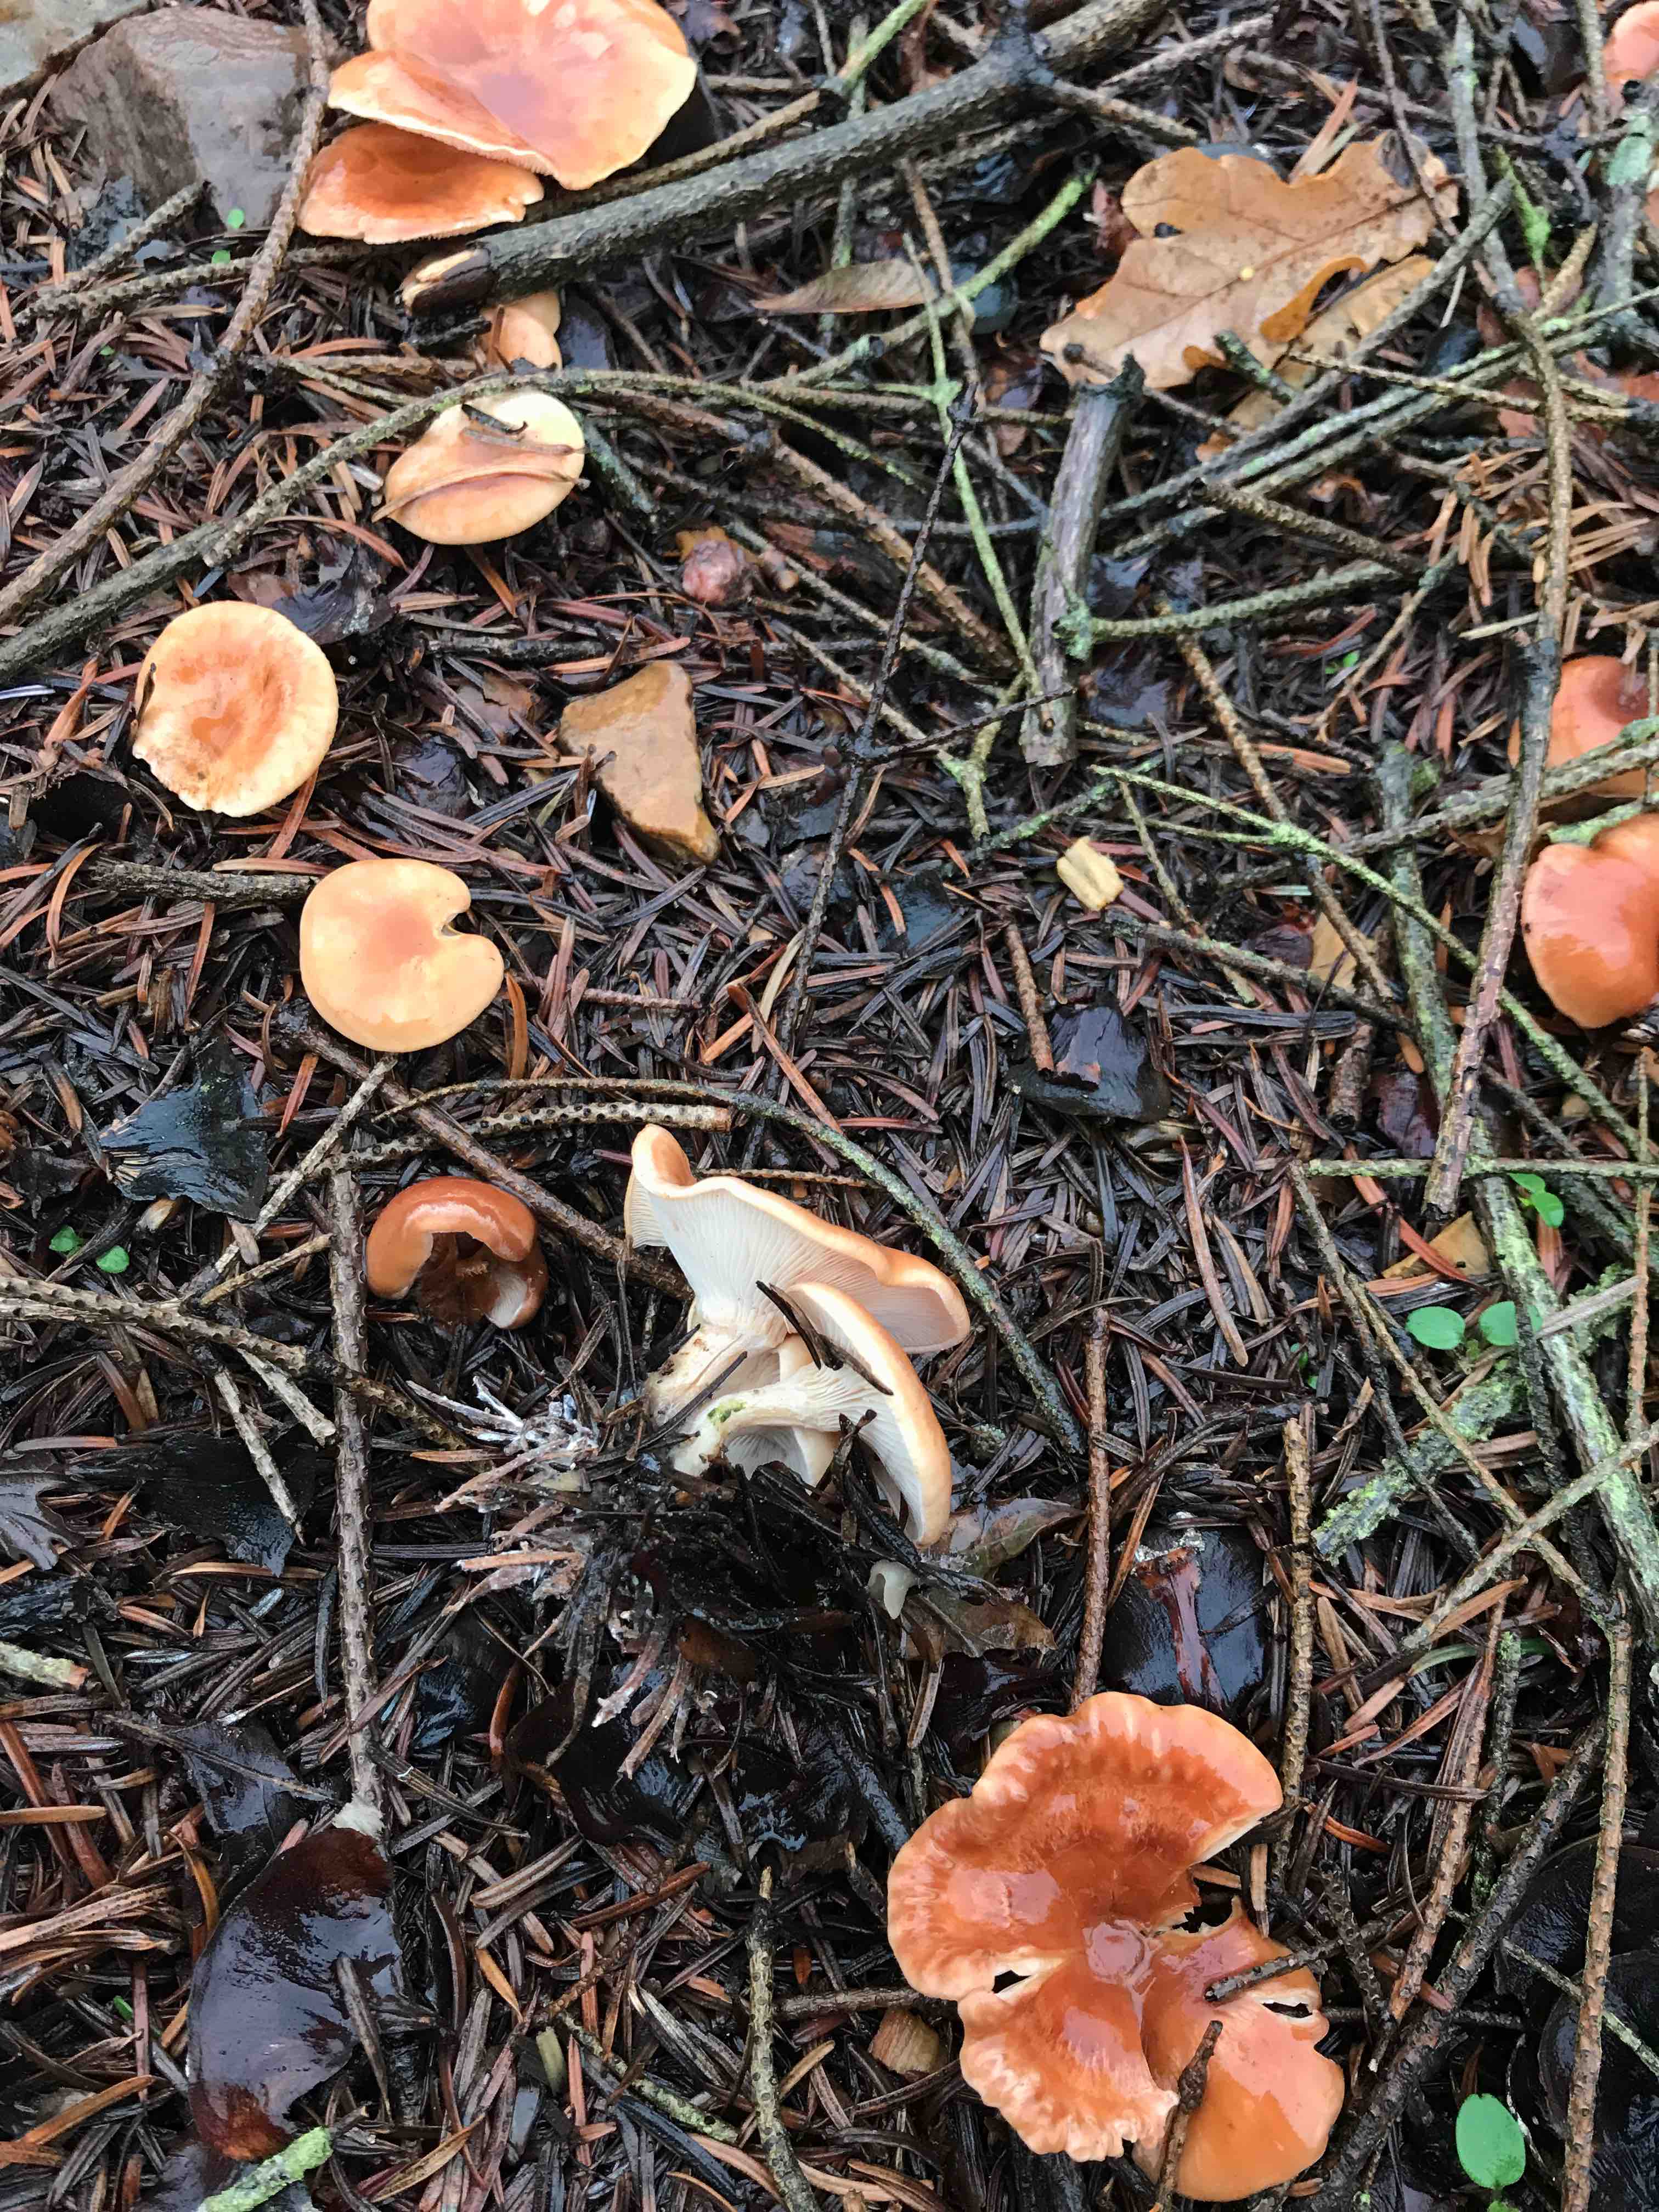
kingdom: Fungi
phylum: Basidiomycota
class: Agaricomycetes
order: Agaricales
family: Tricholomataceae
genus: Paralepista
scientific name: Paralepista flaccida
